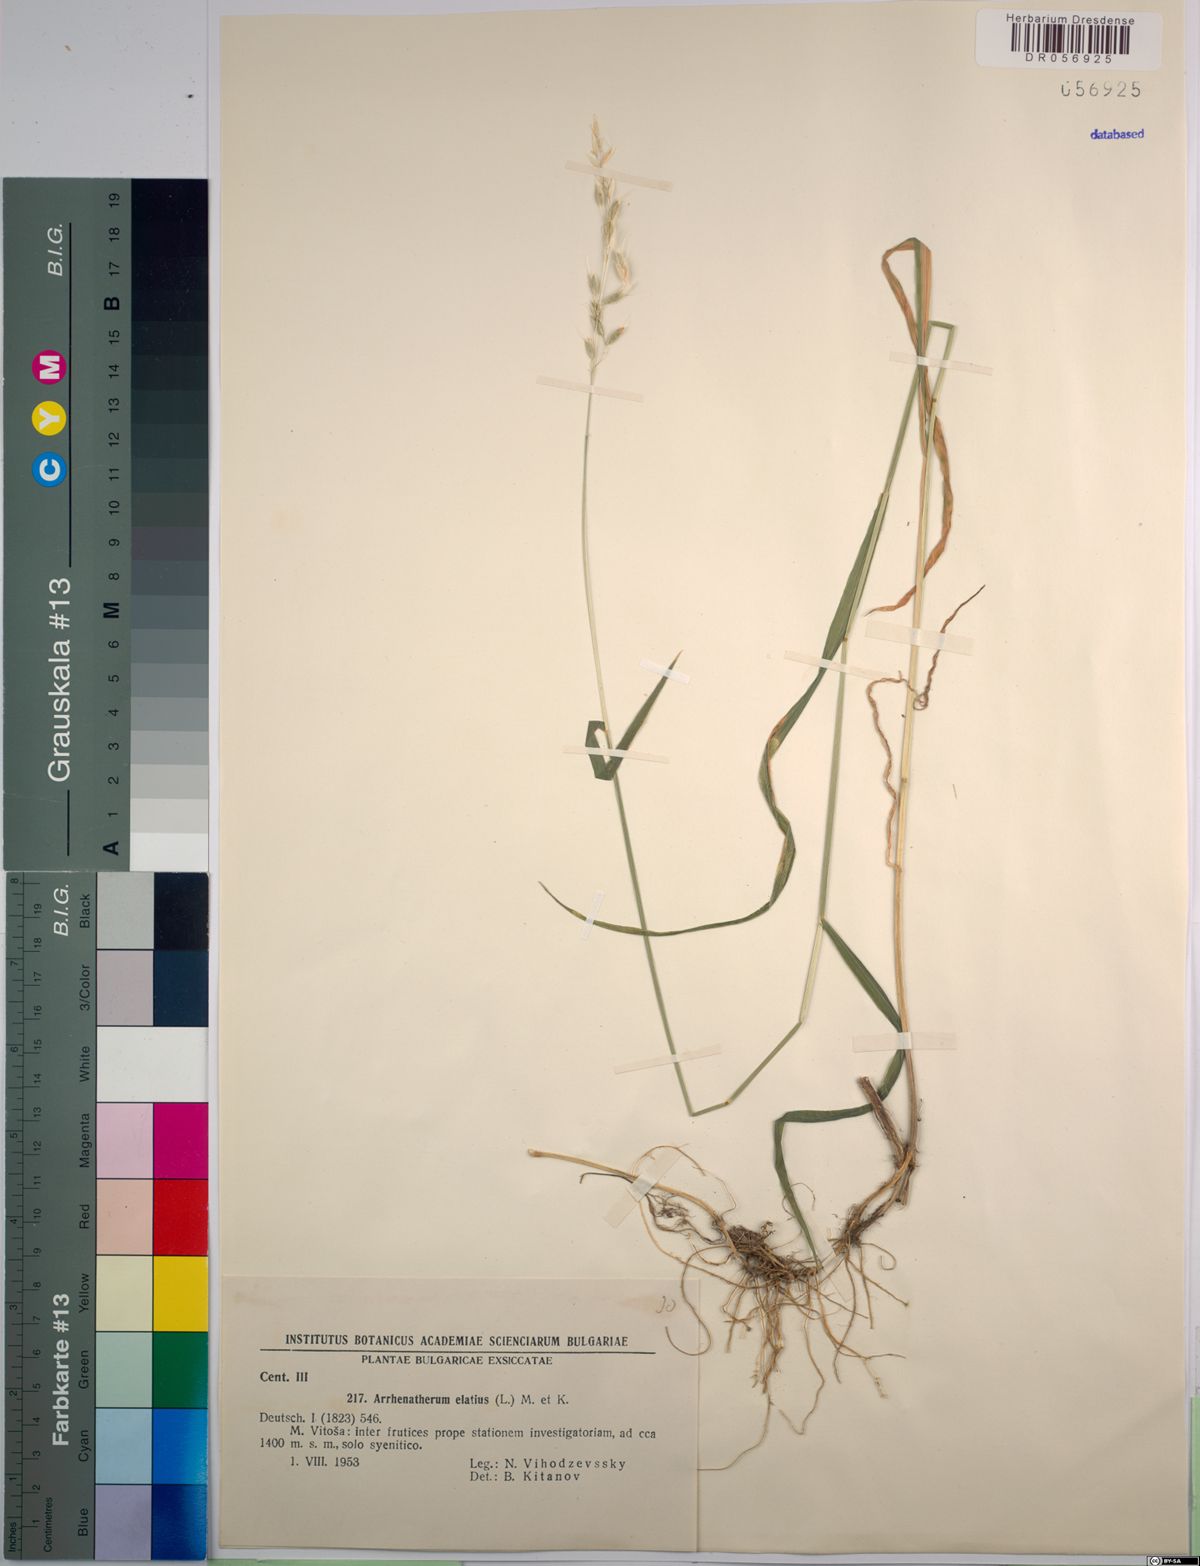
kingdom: Plantae
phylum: Tracheophyta
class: Liliopsida
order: Poales
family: Poaceae
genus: Arrhenatherum
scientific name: Arrhenatherum elatius
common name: Tall oatgrass
